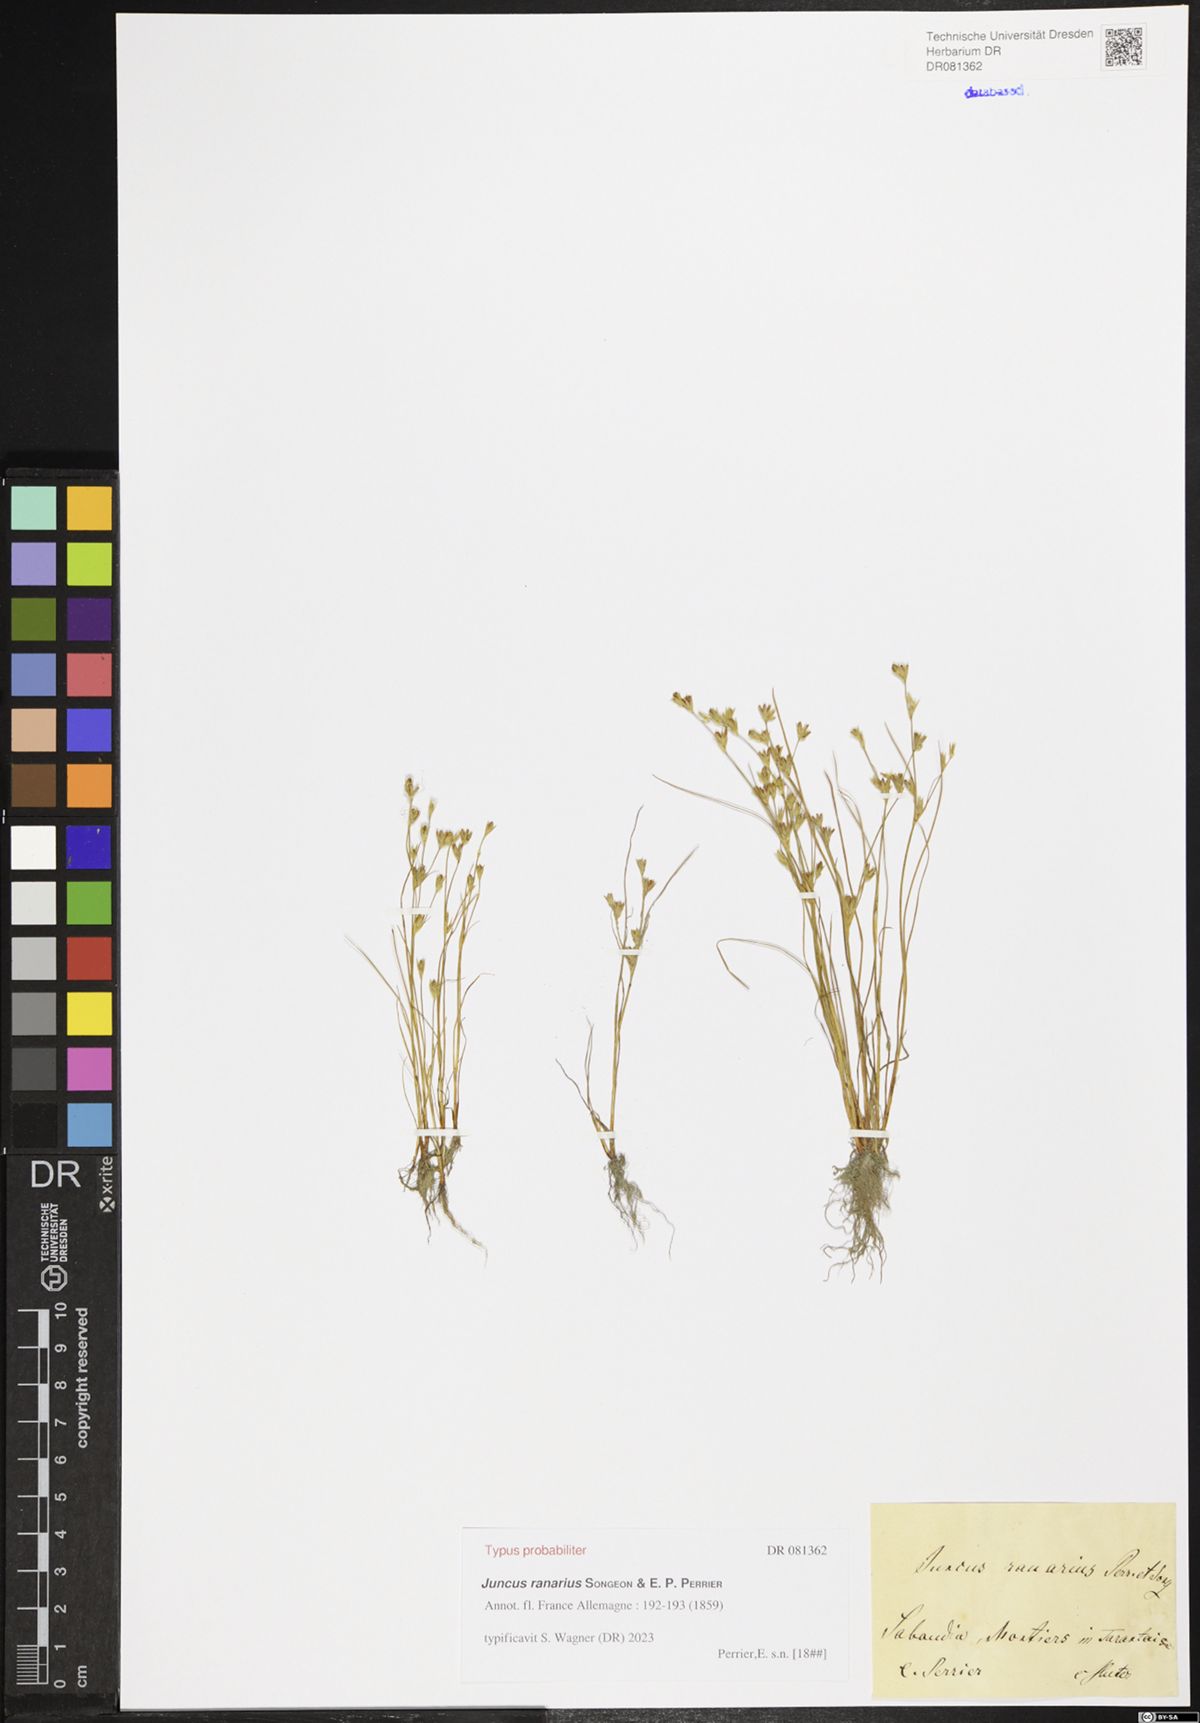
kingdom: Plantae
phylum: Tracheophyta
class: Liliopsida
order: Poales
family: Juncaceae
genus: Juncus
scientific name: Juncus ranarius
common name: Frog rush
